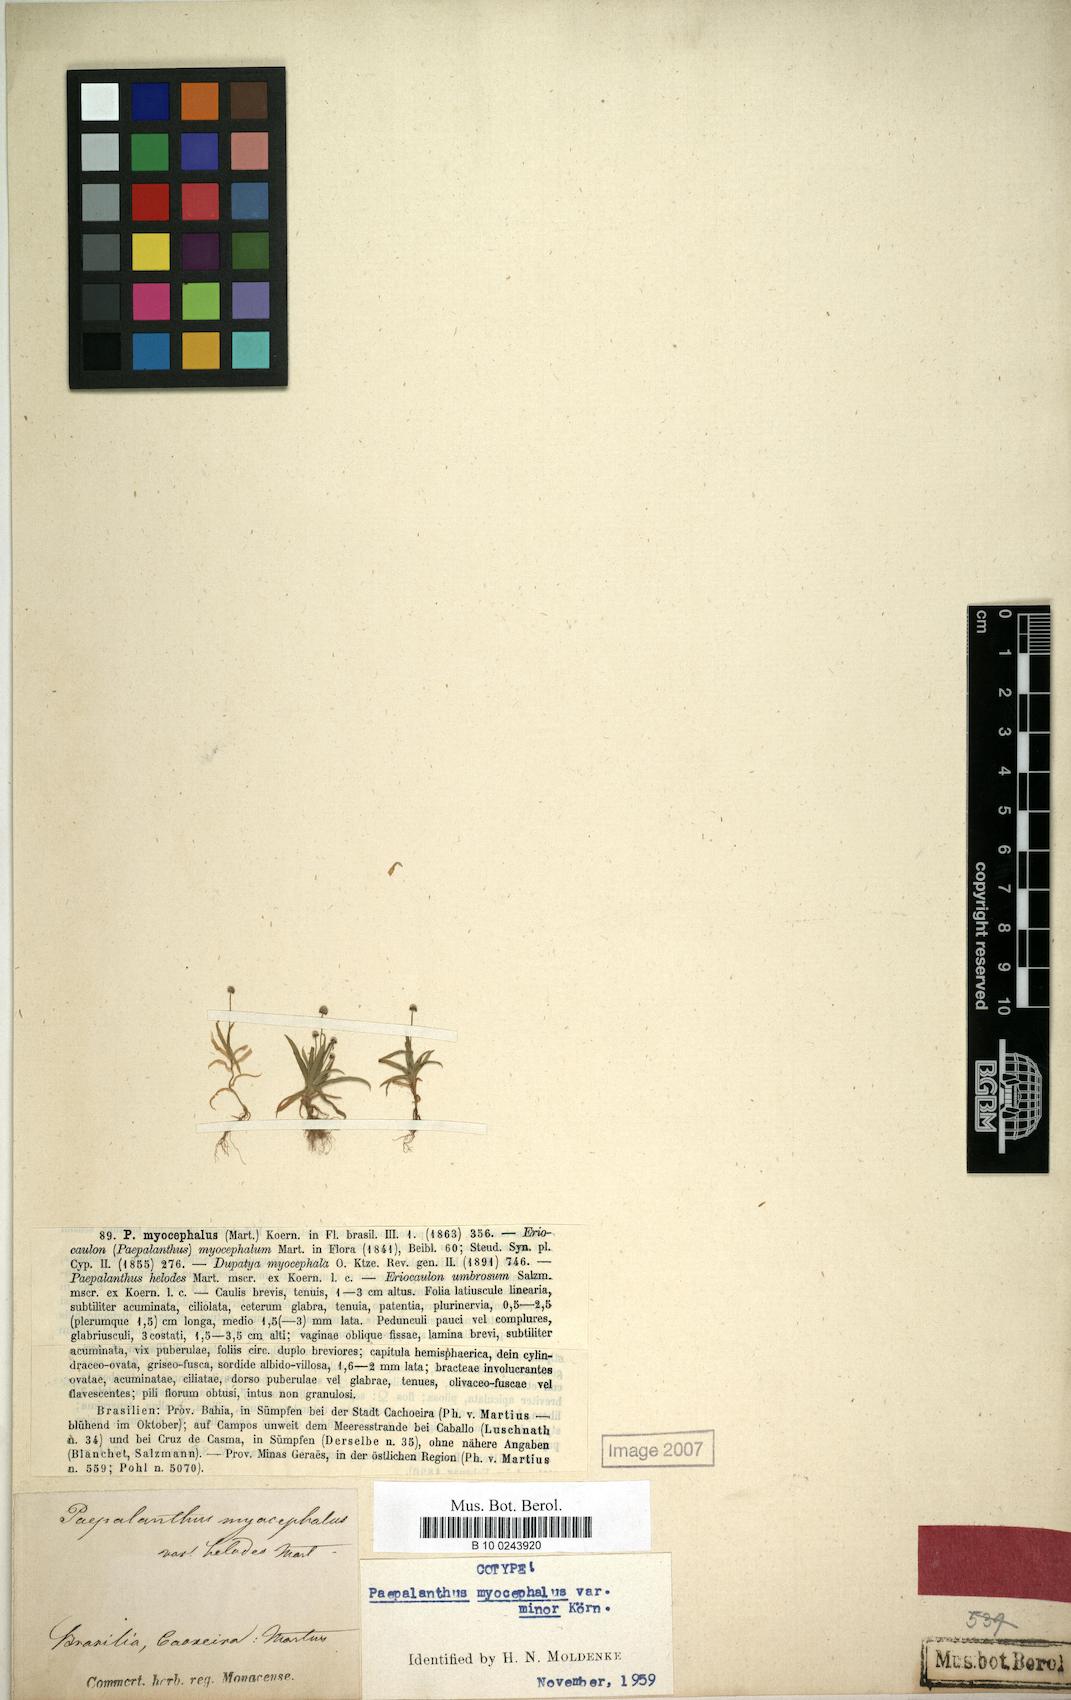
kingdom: Plantae
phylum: Tracheophyta
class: Liliopsida
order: Poales
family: Eriocaulaceae
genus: Paepalanthus
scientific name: Paepalanthus myocephalon
